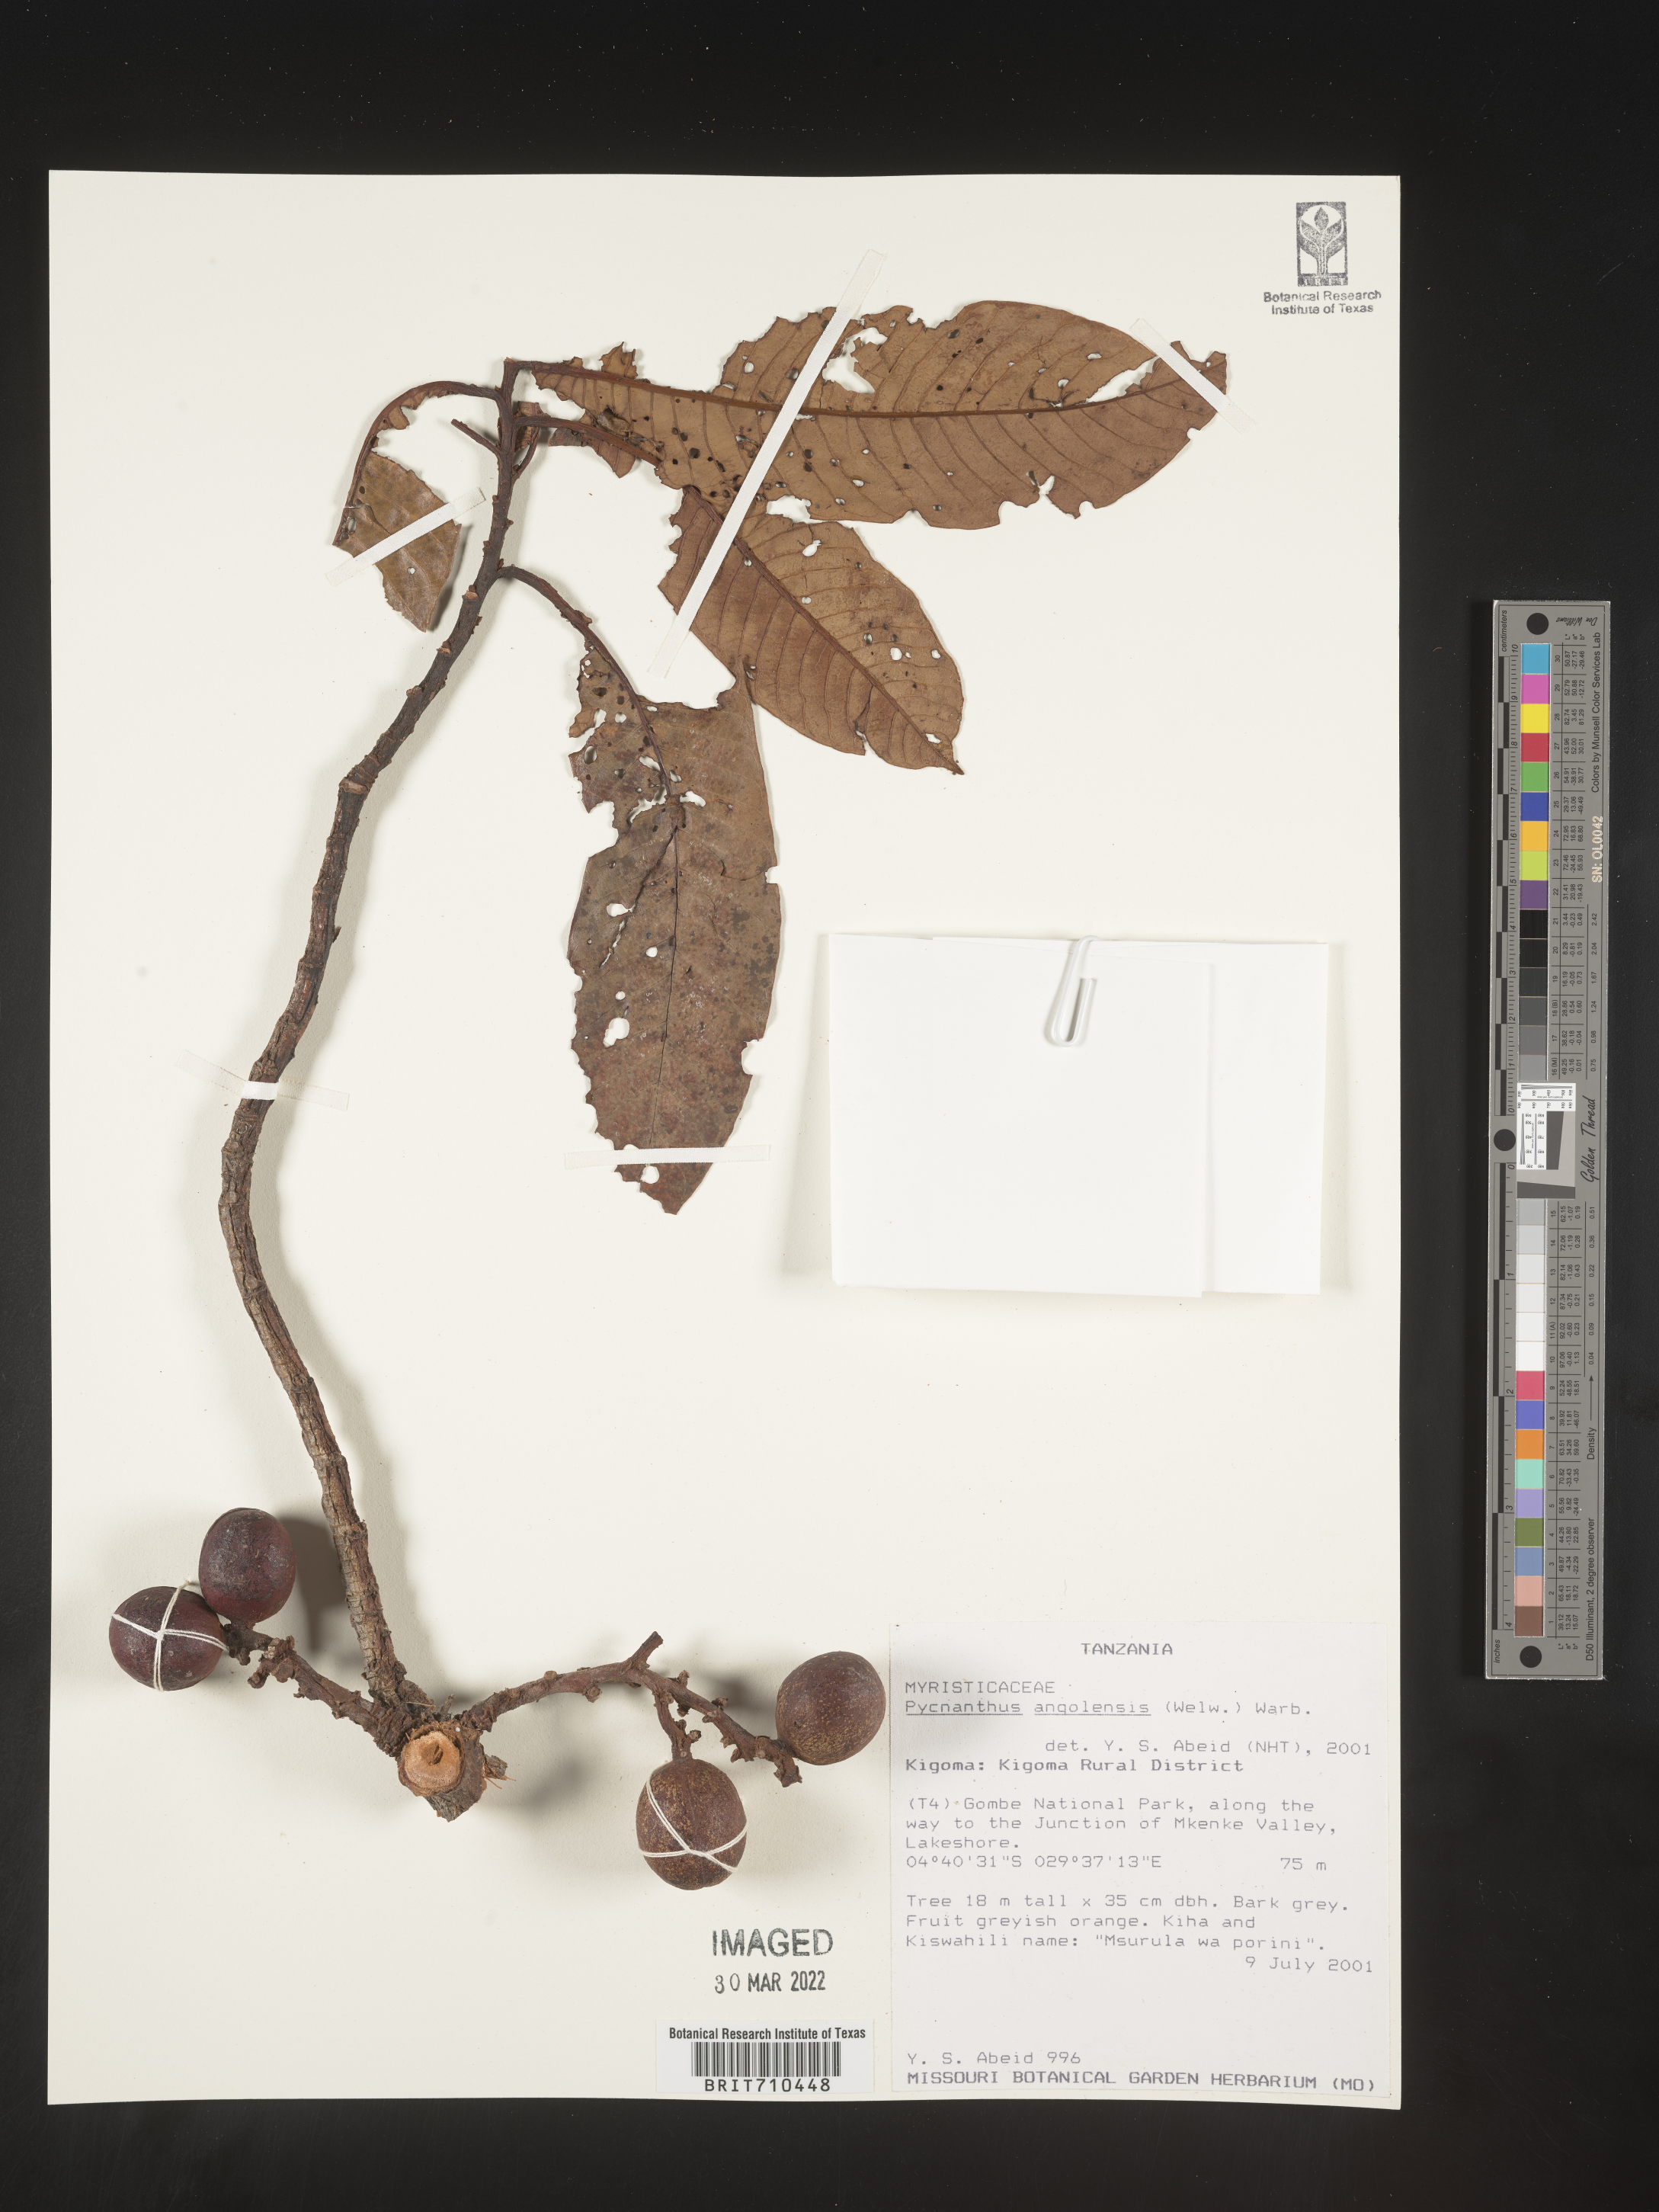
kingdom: Plantae
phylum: Tracheophyta
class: Magnoliopsida
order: Magnoliales
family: Myristicaceae
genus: Pycnanthus
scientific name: Pycnanthus
